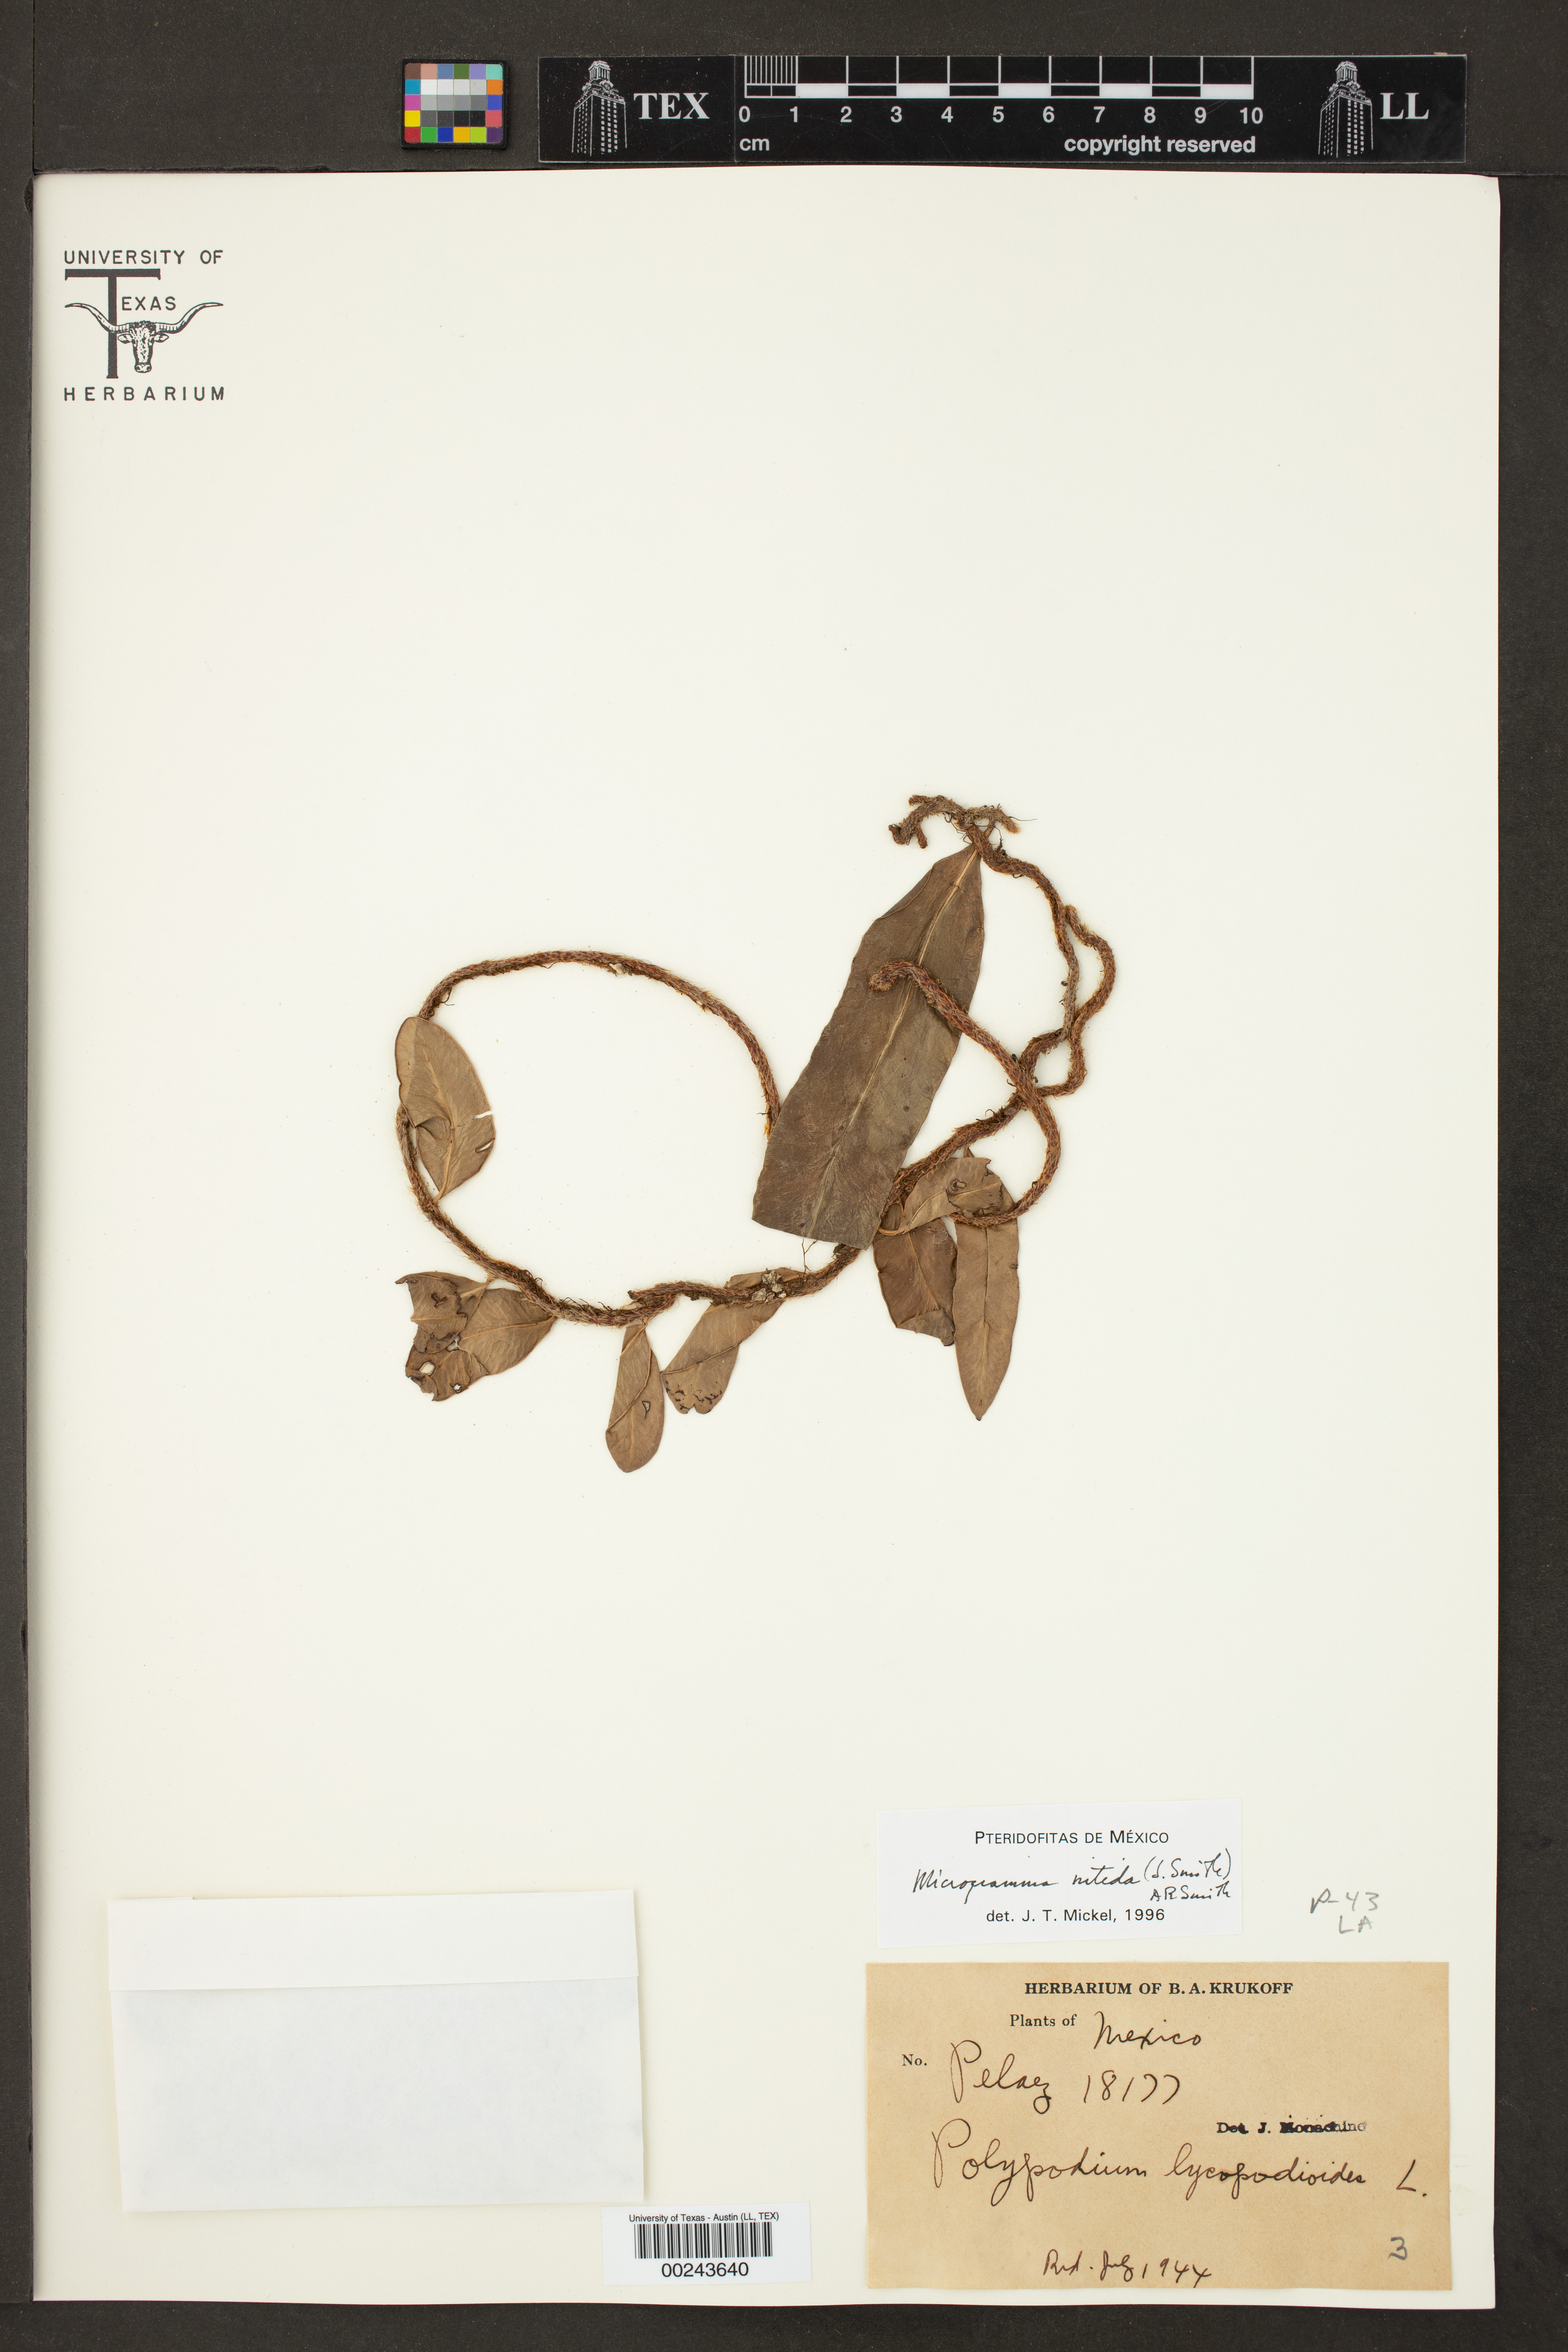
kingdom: Plantae
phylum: Tracheophyta
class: Polypodiopsida
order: Polypodiales
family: Polypodiaceae
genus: Microgramma
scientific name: Microgramma nitida
